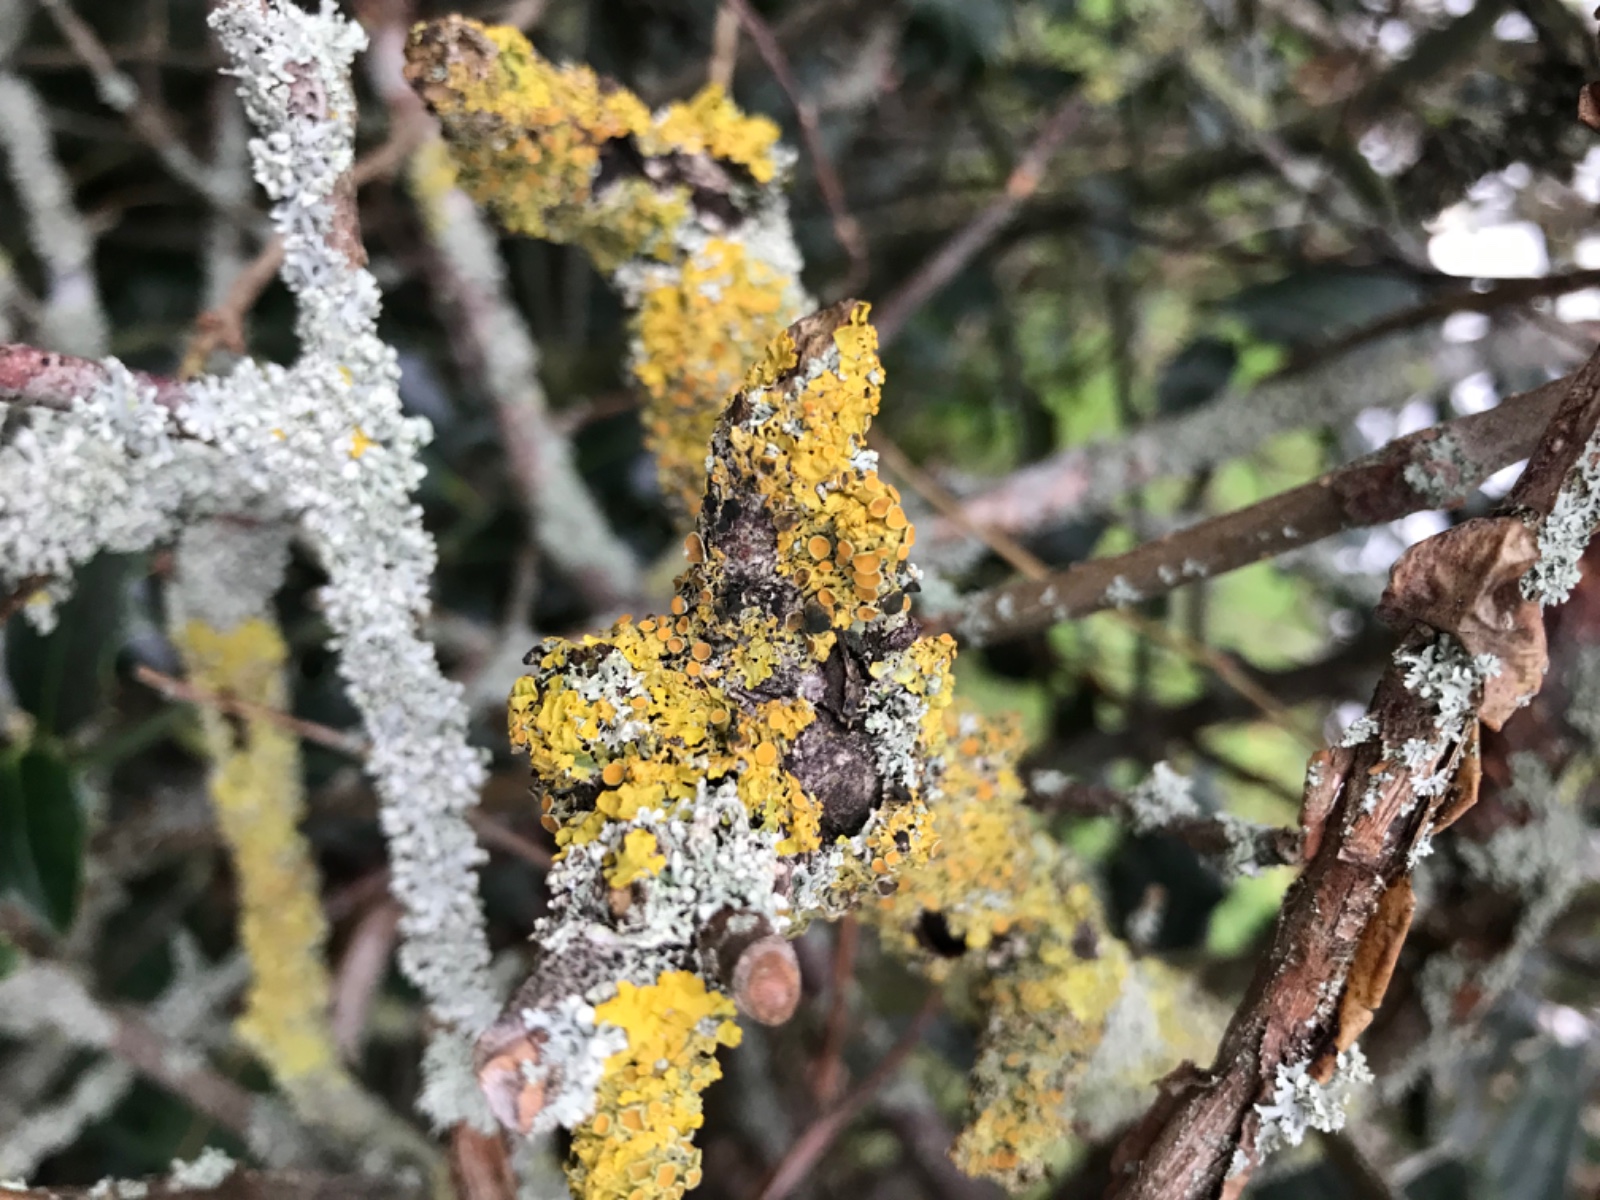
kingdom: Fungi
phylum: Ascomycota
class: Dothideomycetes
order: Mycosphaerellales
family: Teratosphaeriaceae
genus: Xanthoriicola
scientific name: Xanthoriicola physciae
